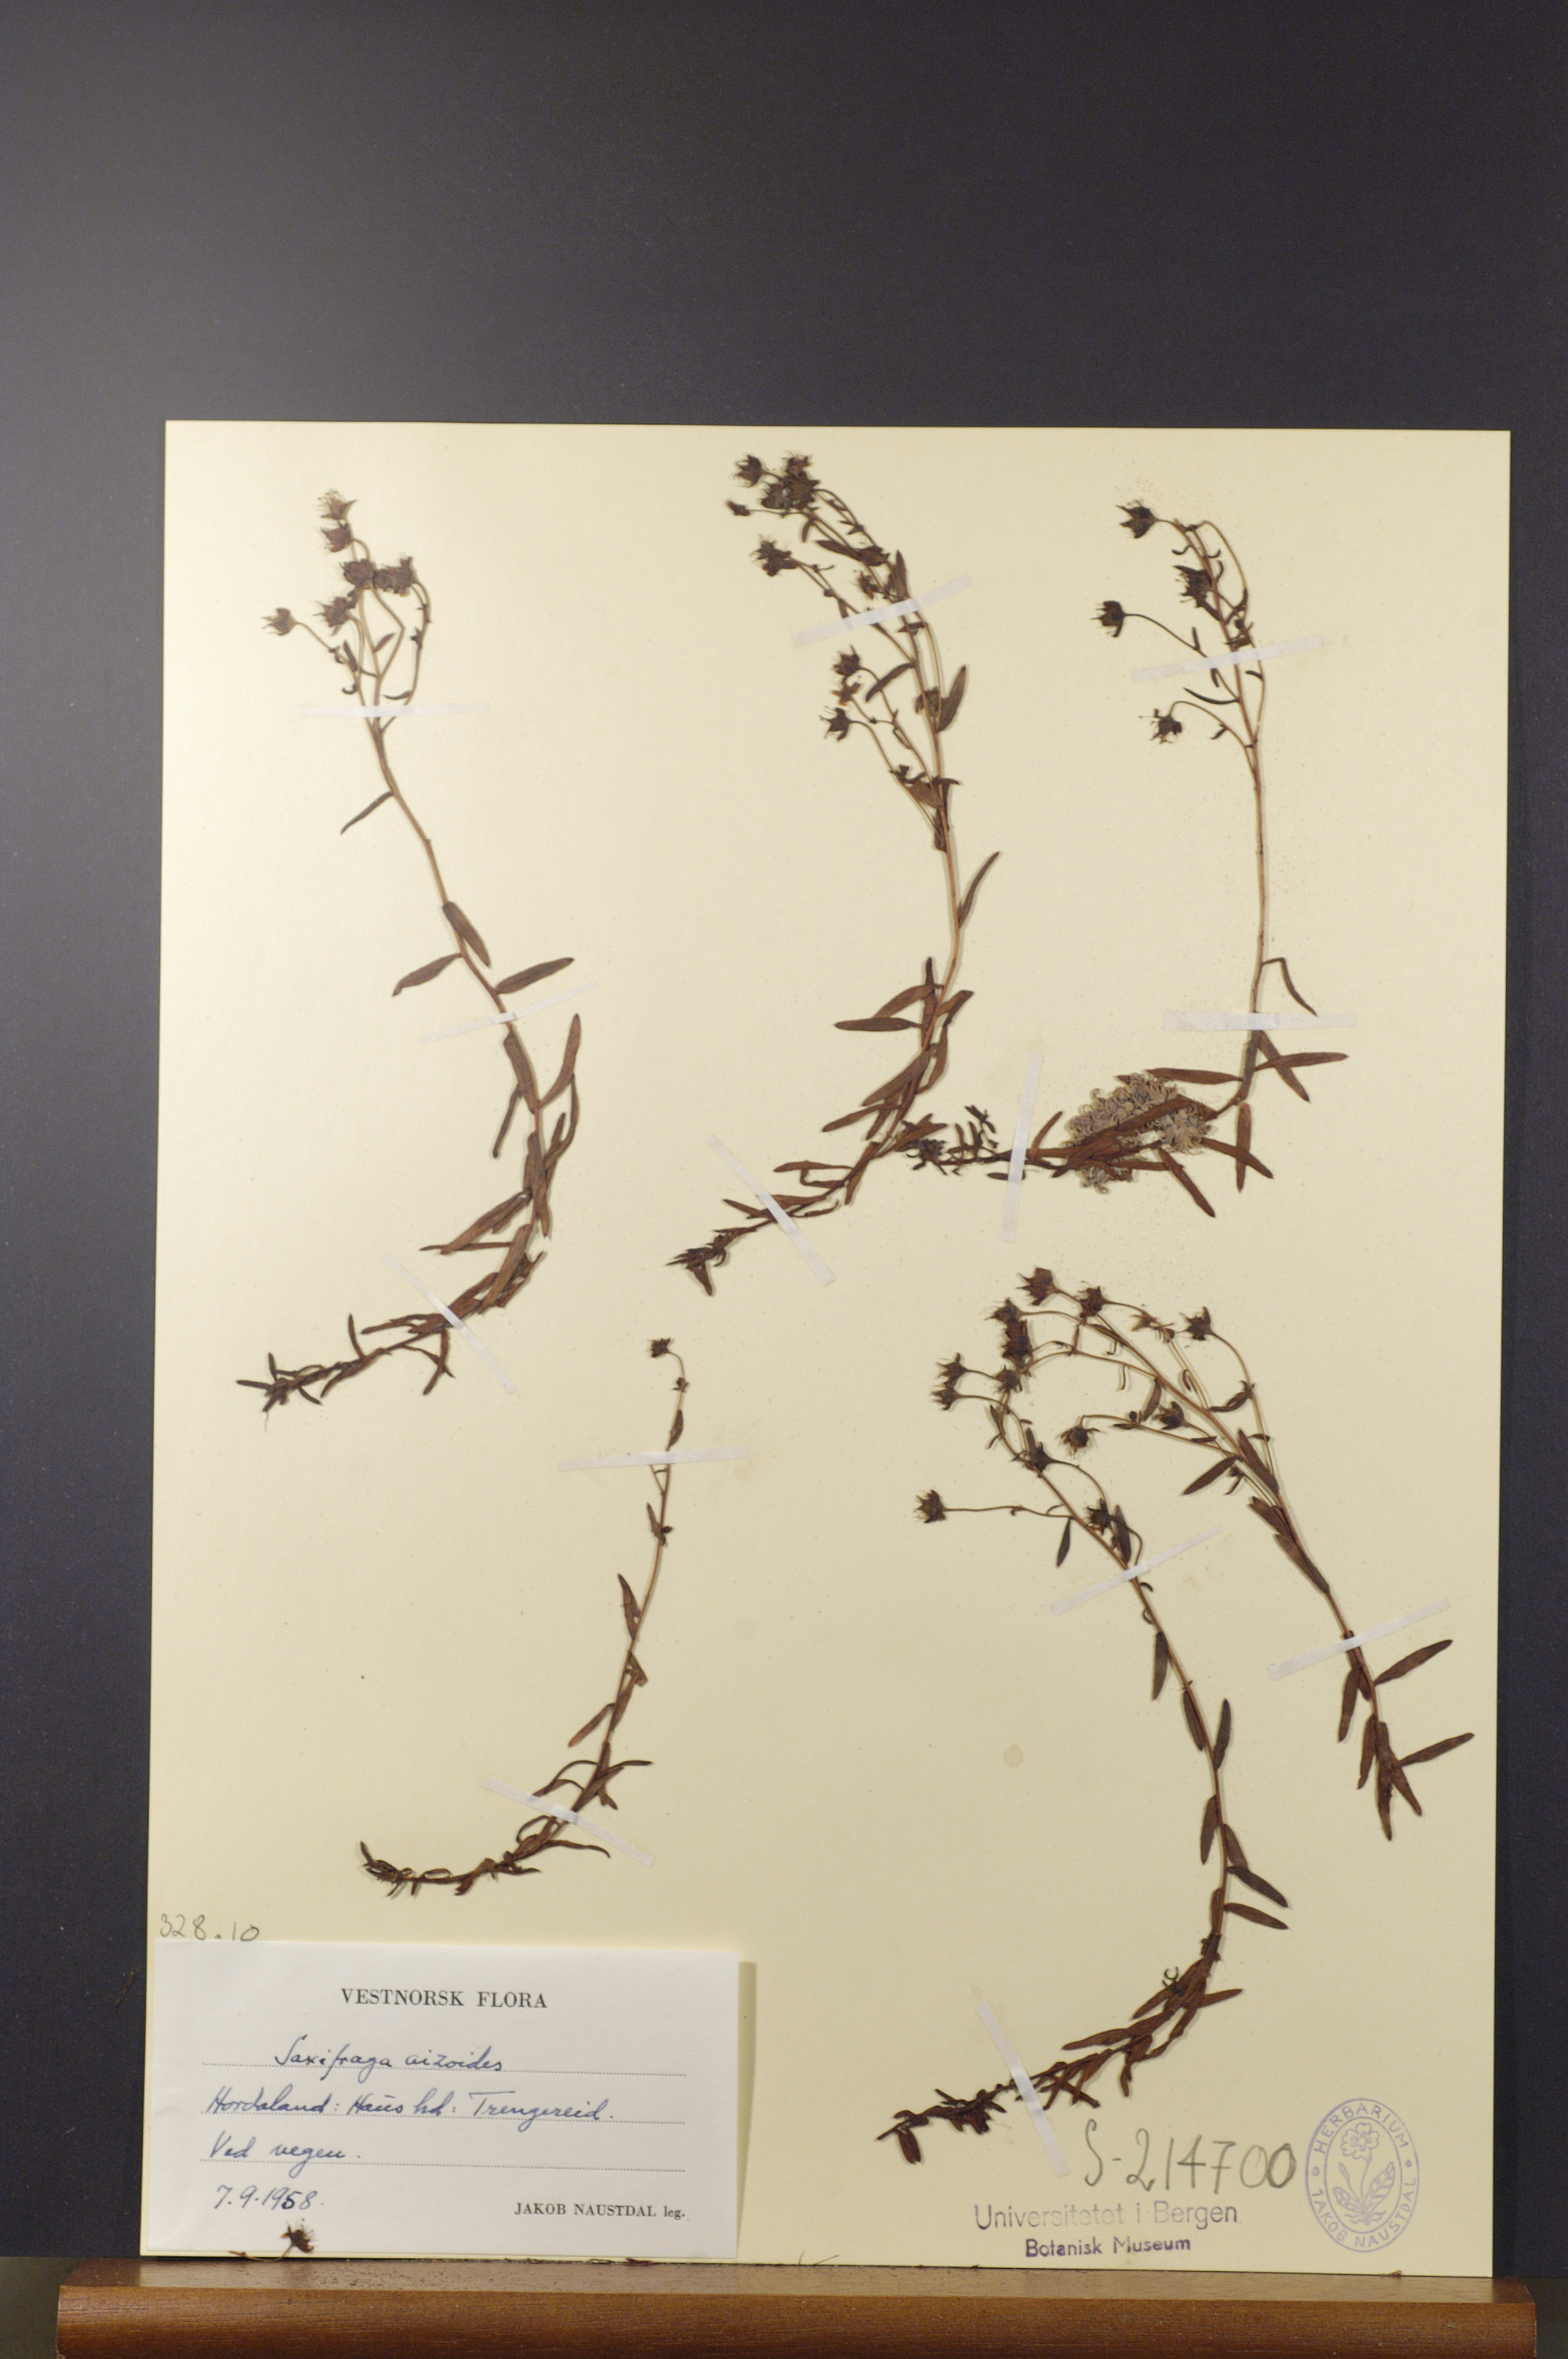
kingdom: Plantae
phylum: Tracheophyta
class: Magnoliopsida
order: Saxifragales
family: Saxifragaceae
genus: Saxifraga
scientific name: Saxifraga aizoides
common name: Yellow mountain saxifrage
